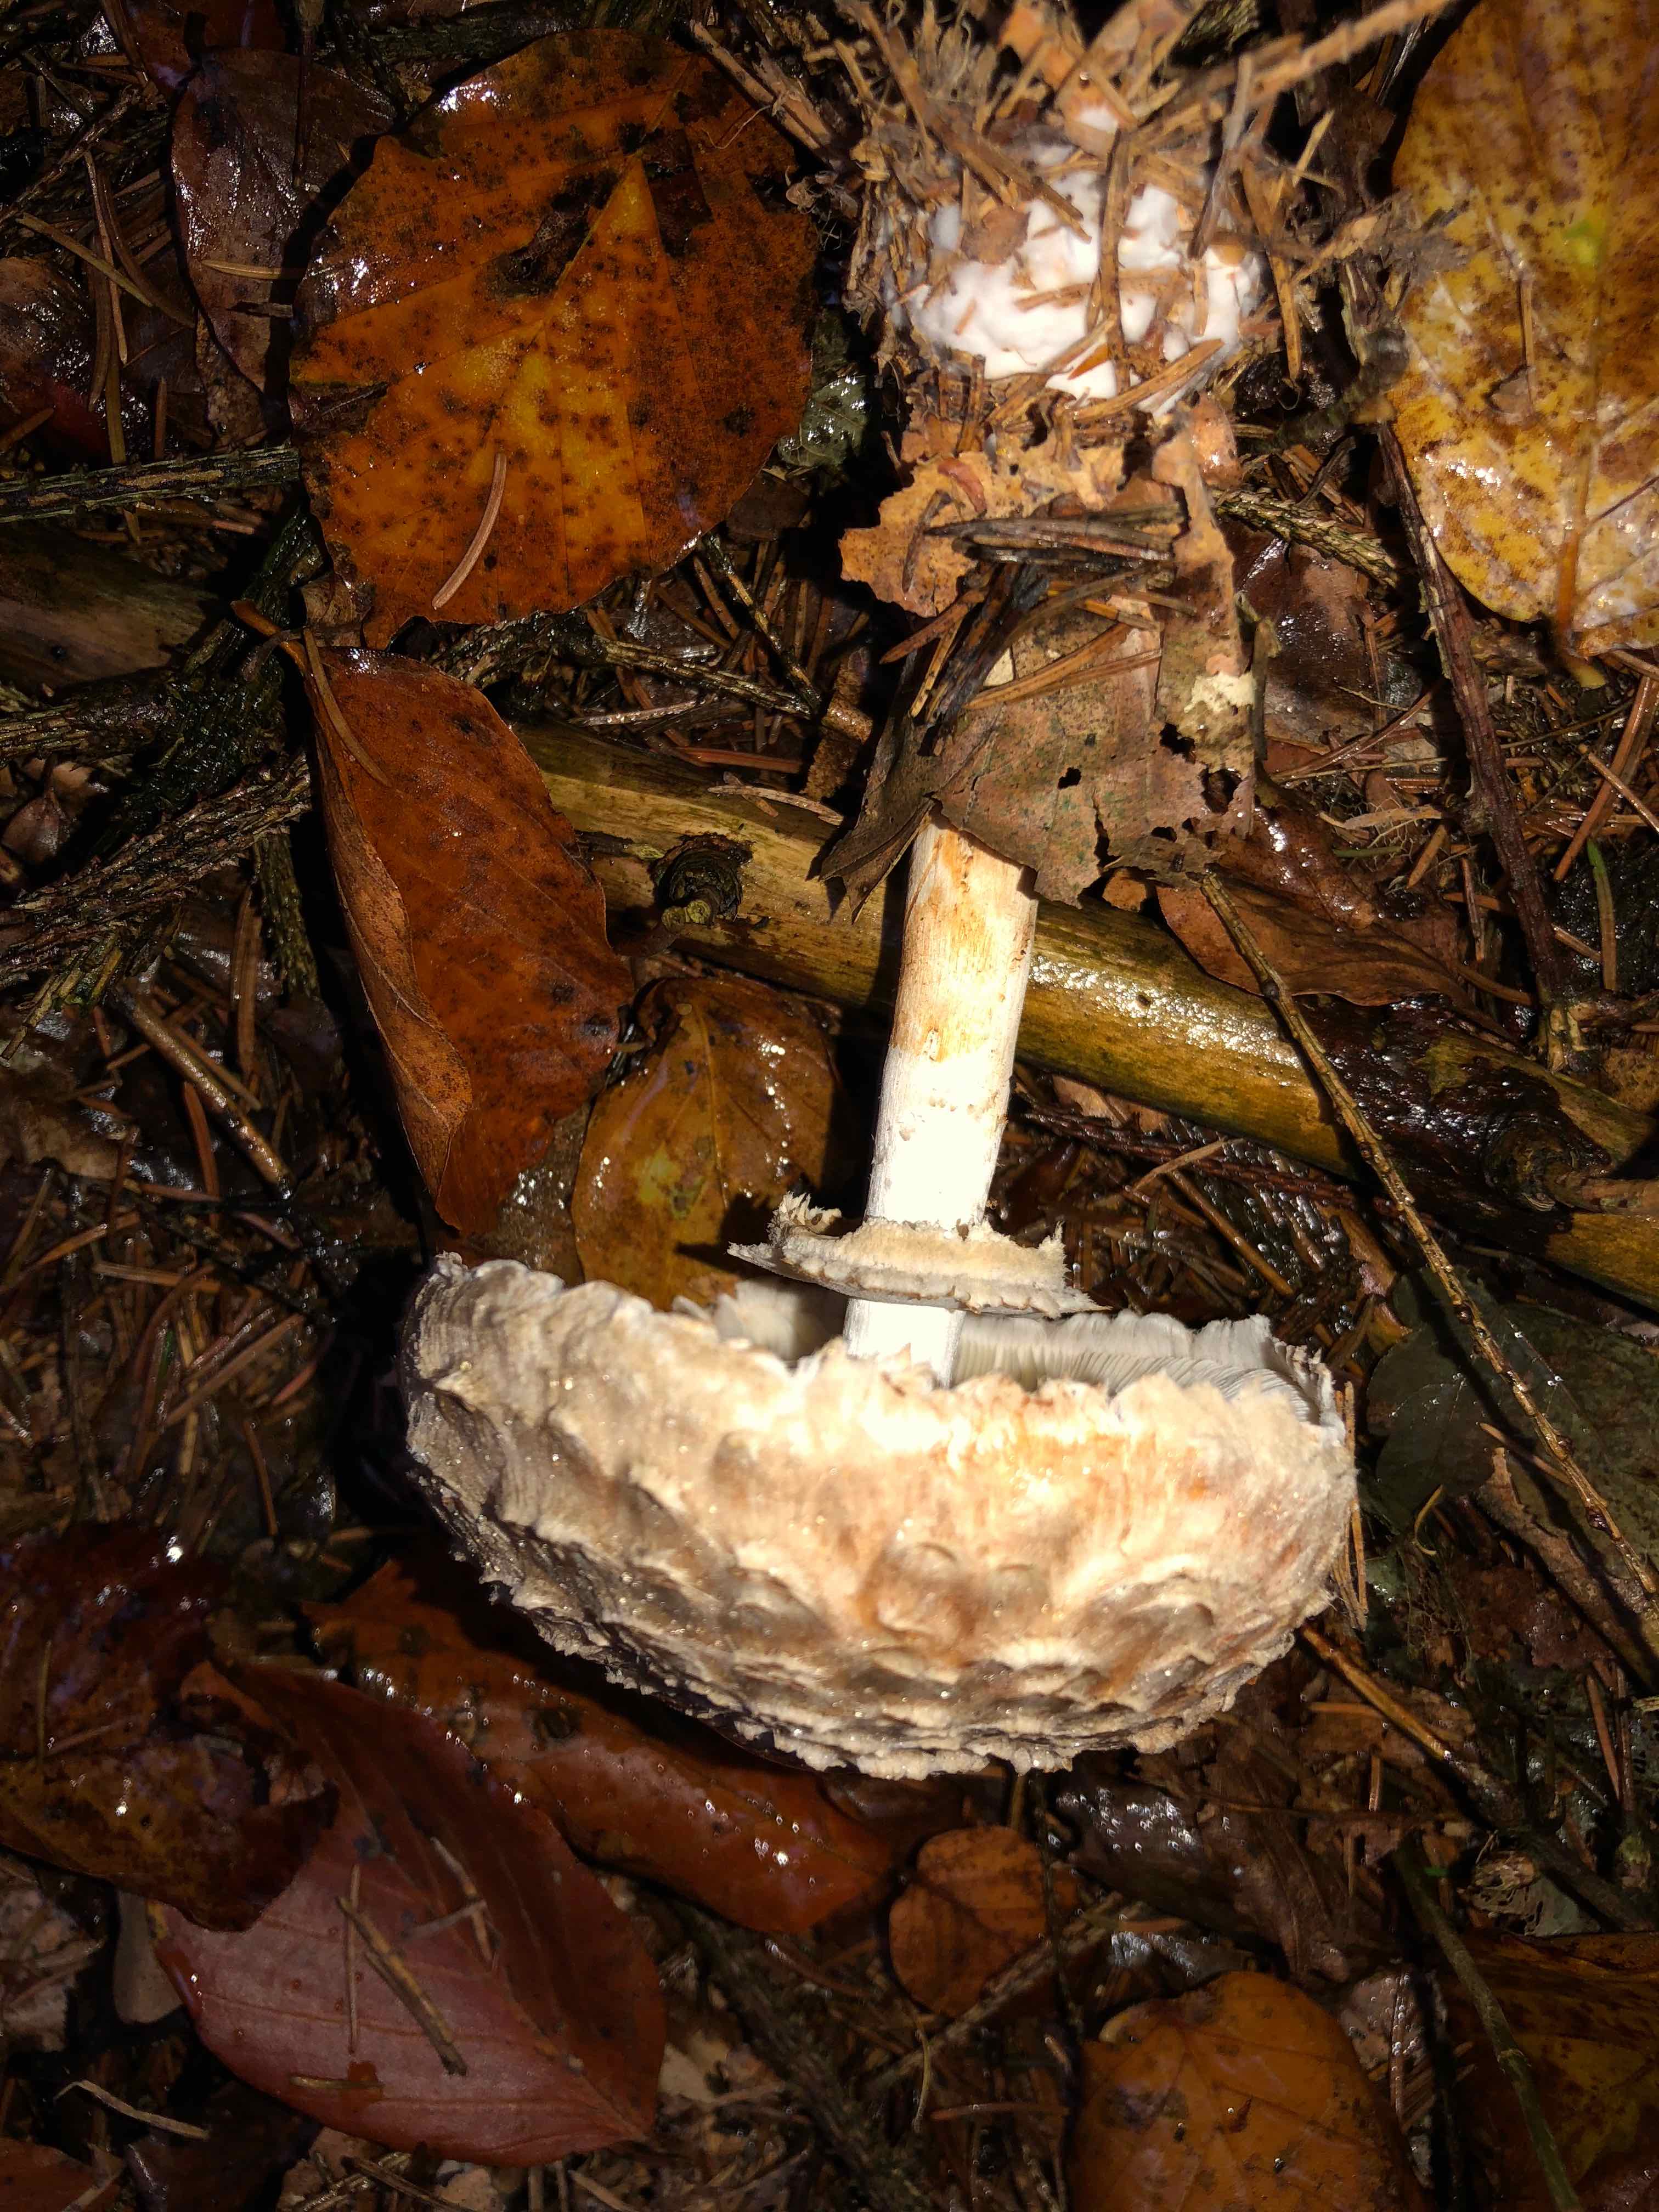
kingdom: Fungi
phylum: Basidiomycota
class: Agaricomycetes
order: Agaricales
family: Agaricaceae
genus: Chlorophyllum
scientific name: Chlorophyllum olivieri
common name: almindelig rabarberhat
